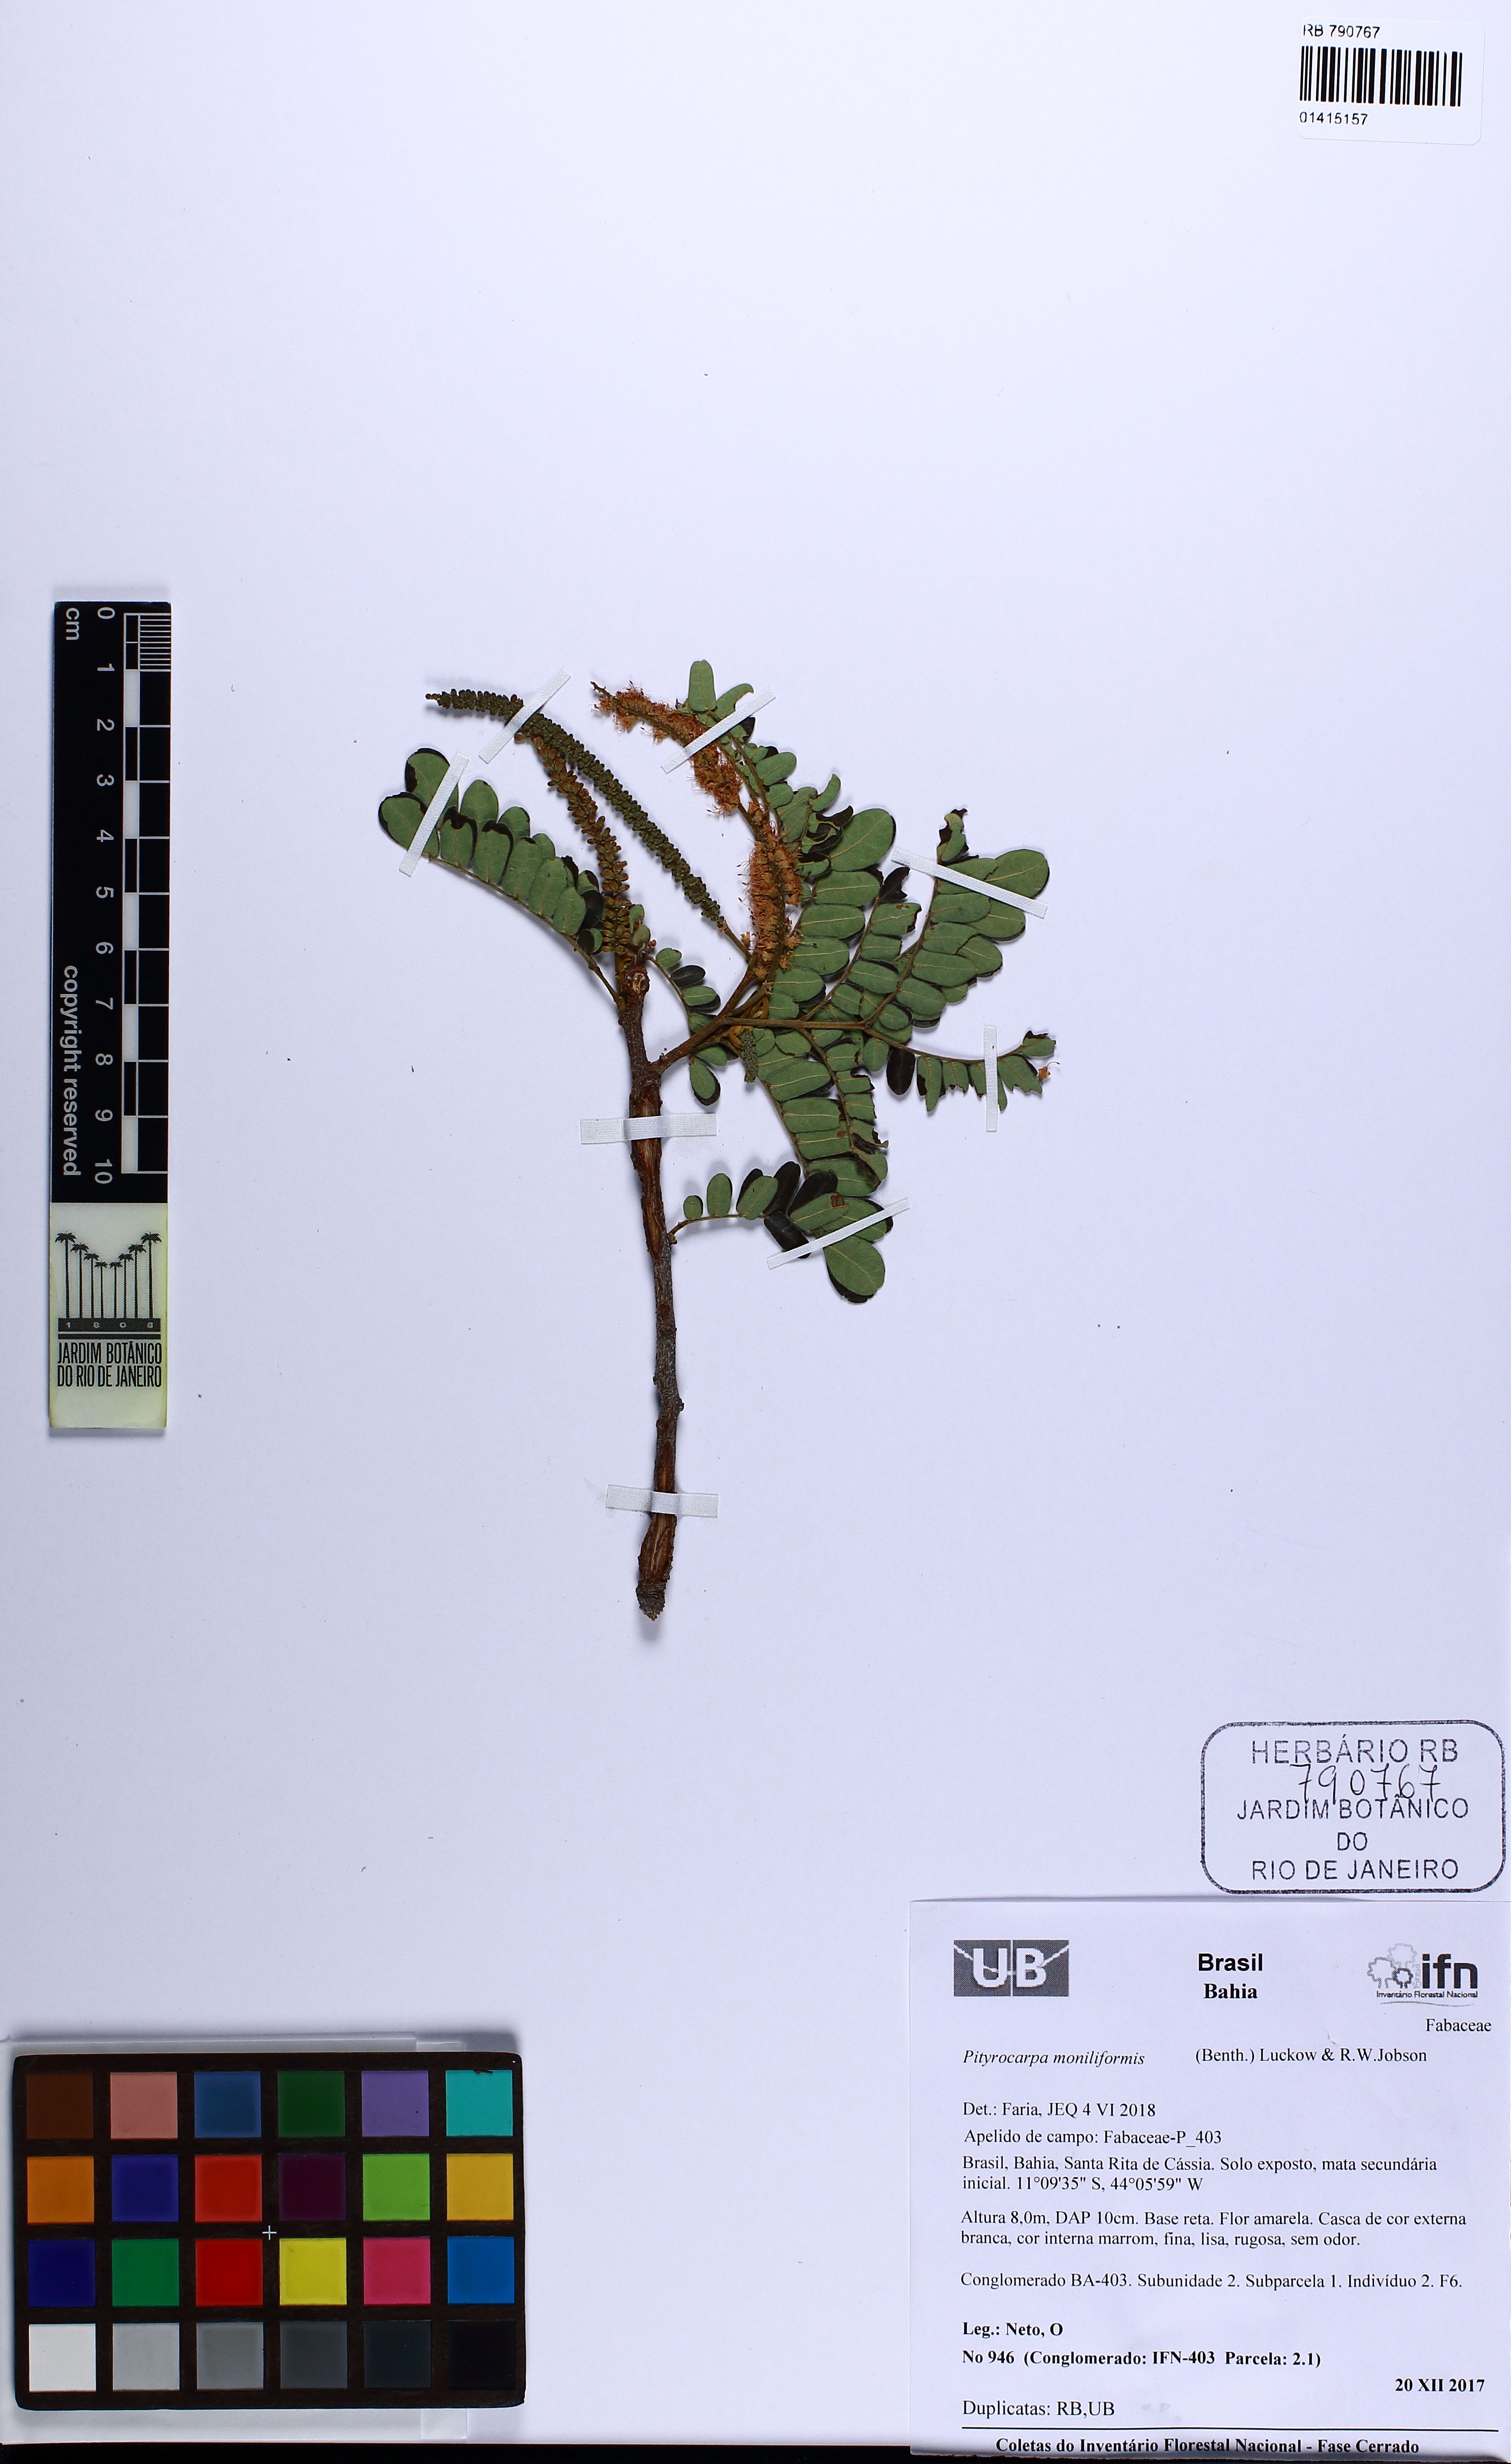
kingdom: Plantae
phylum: Tracheophyta
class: Magnoliopsida
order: Fabales
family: Fabaceae
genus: Pityrocarpa
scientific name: Pityrocarpa moniliformis
